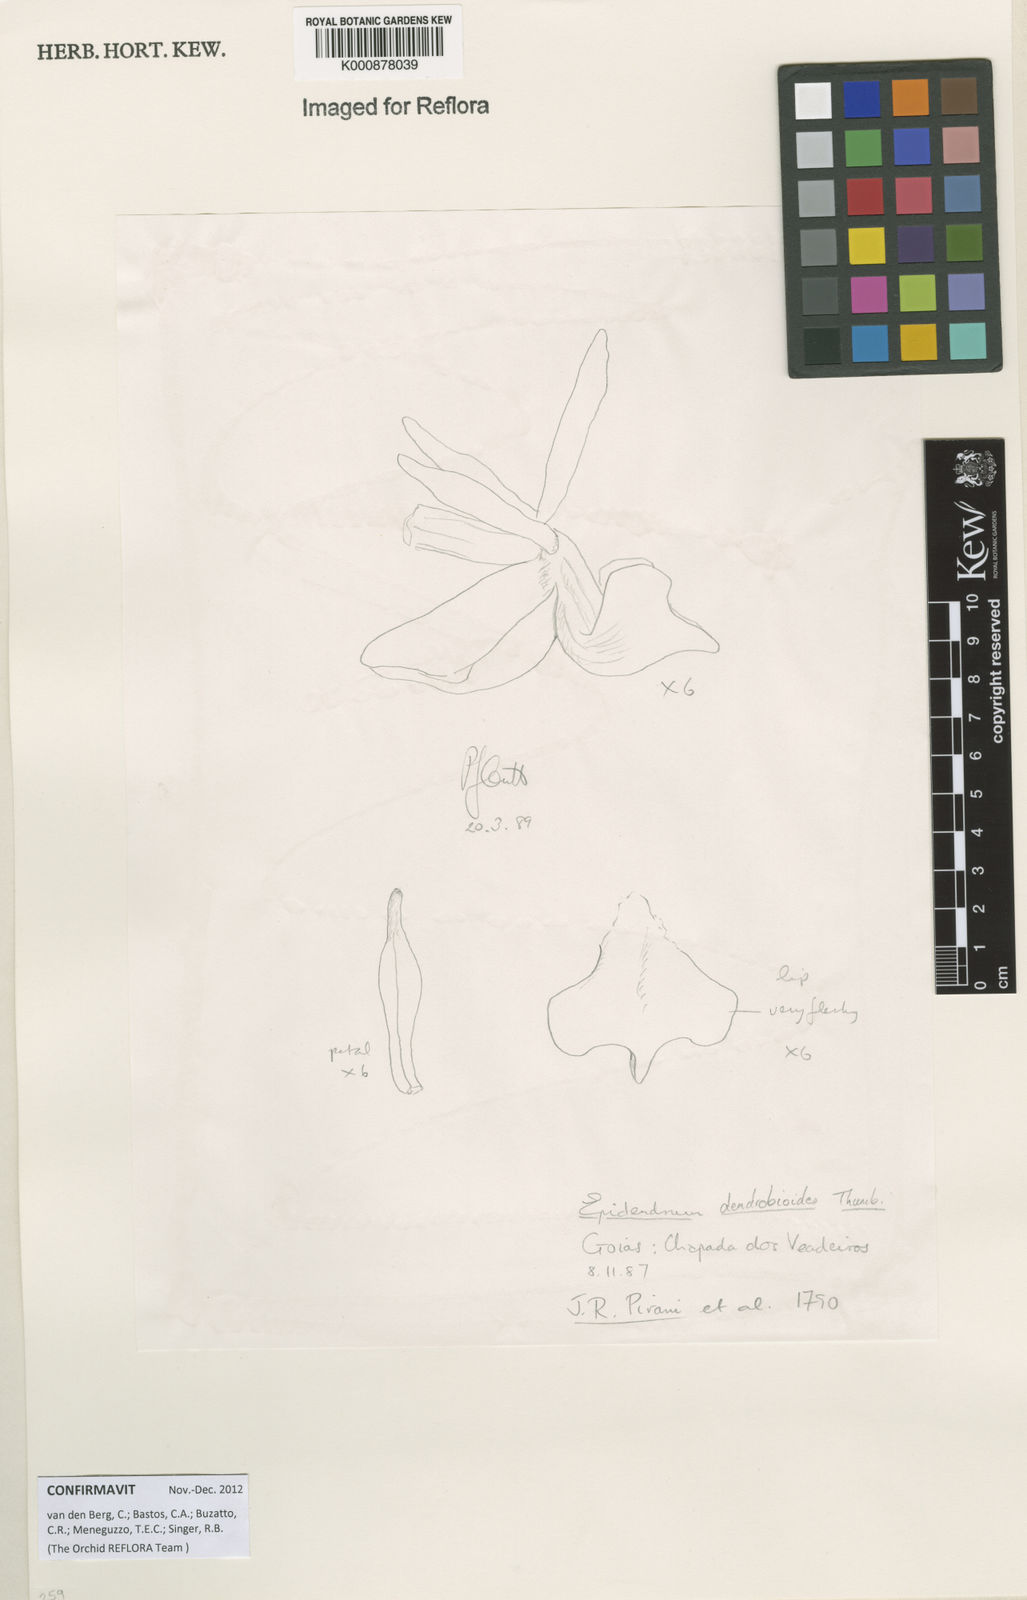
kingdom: Plantae
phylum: Tracheophyta
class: Liliopsida
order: Asparagales
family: Orchidaceae
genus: Epidendrum
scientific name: Epidendrum dendrobioides
